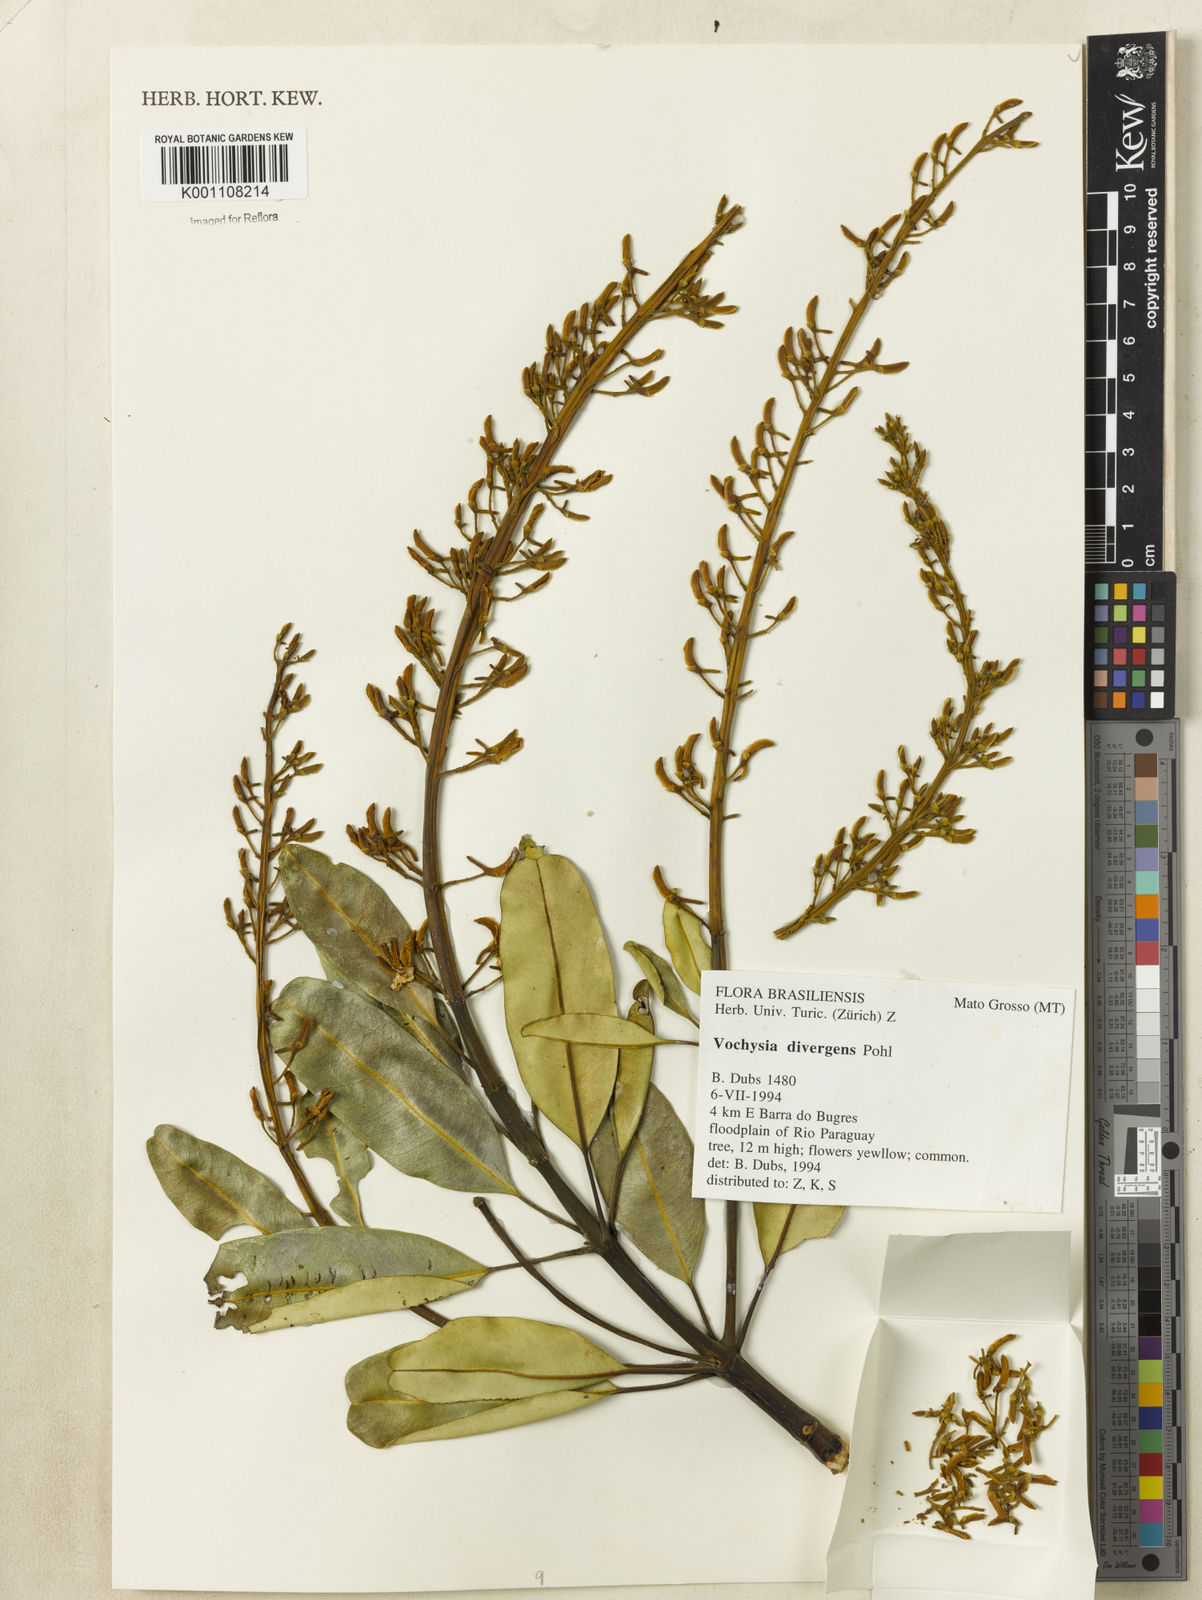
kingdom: Plantae
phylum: Tracheophyta
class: Magnoliopsida
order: Myrtales
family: Vochysiaceae
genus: Vochysia
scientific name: Vochysia divergens
